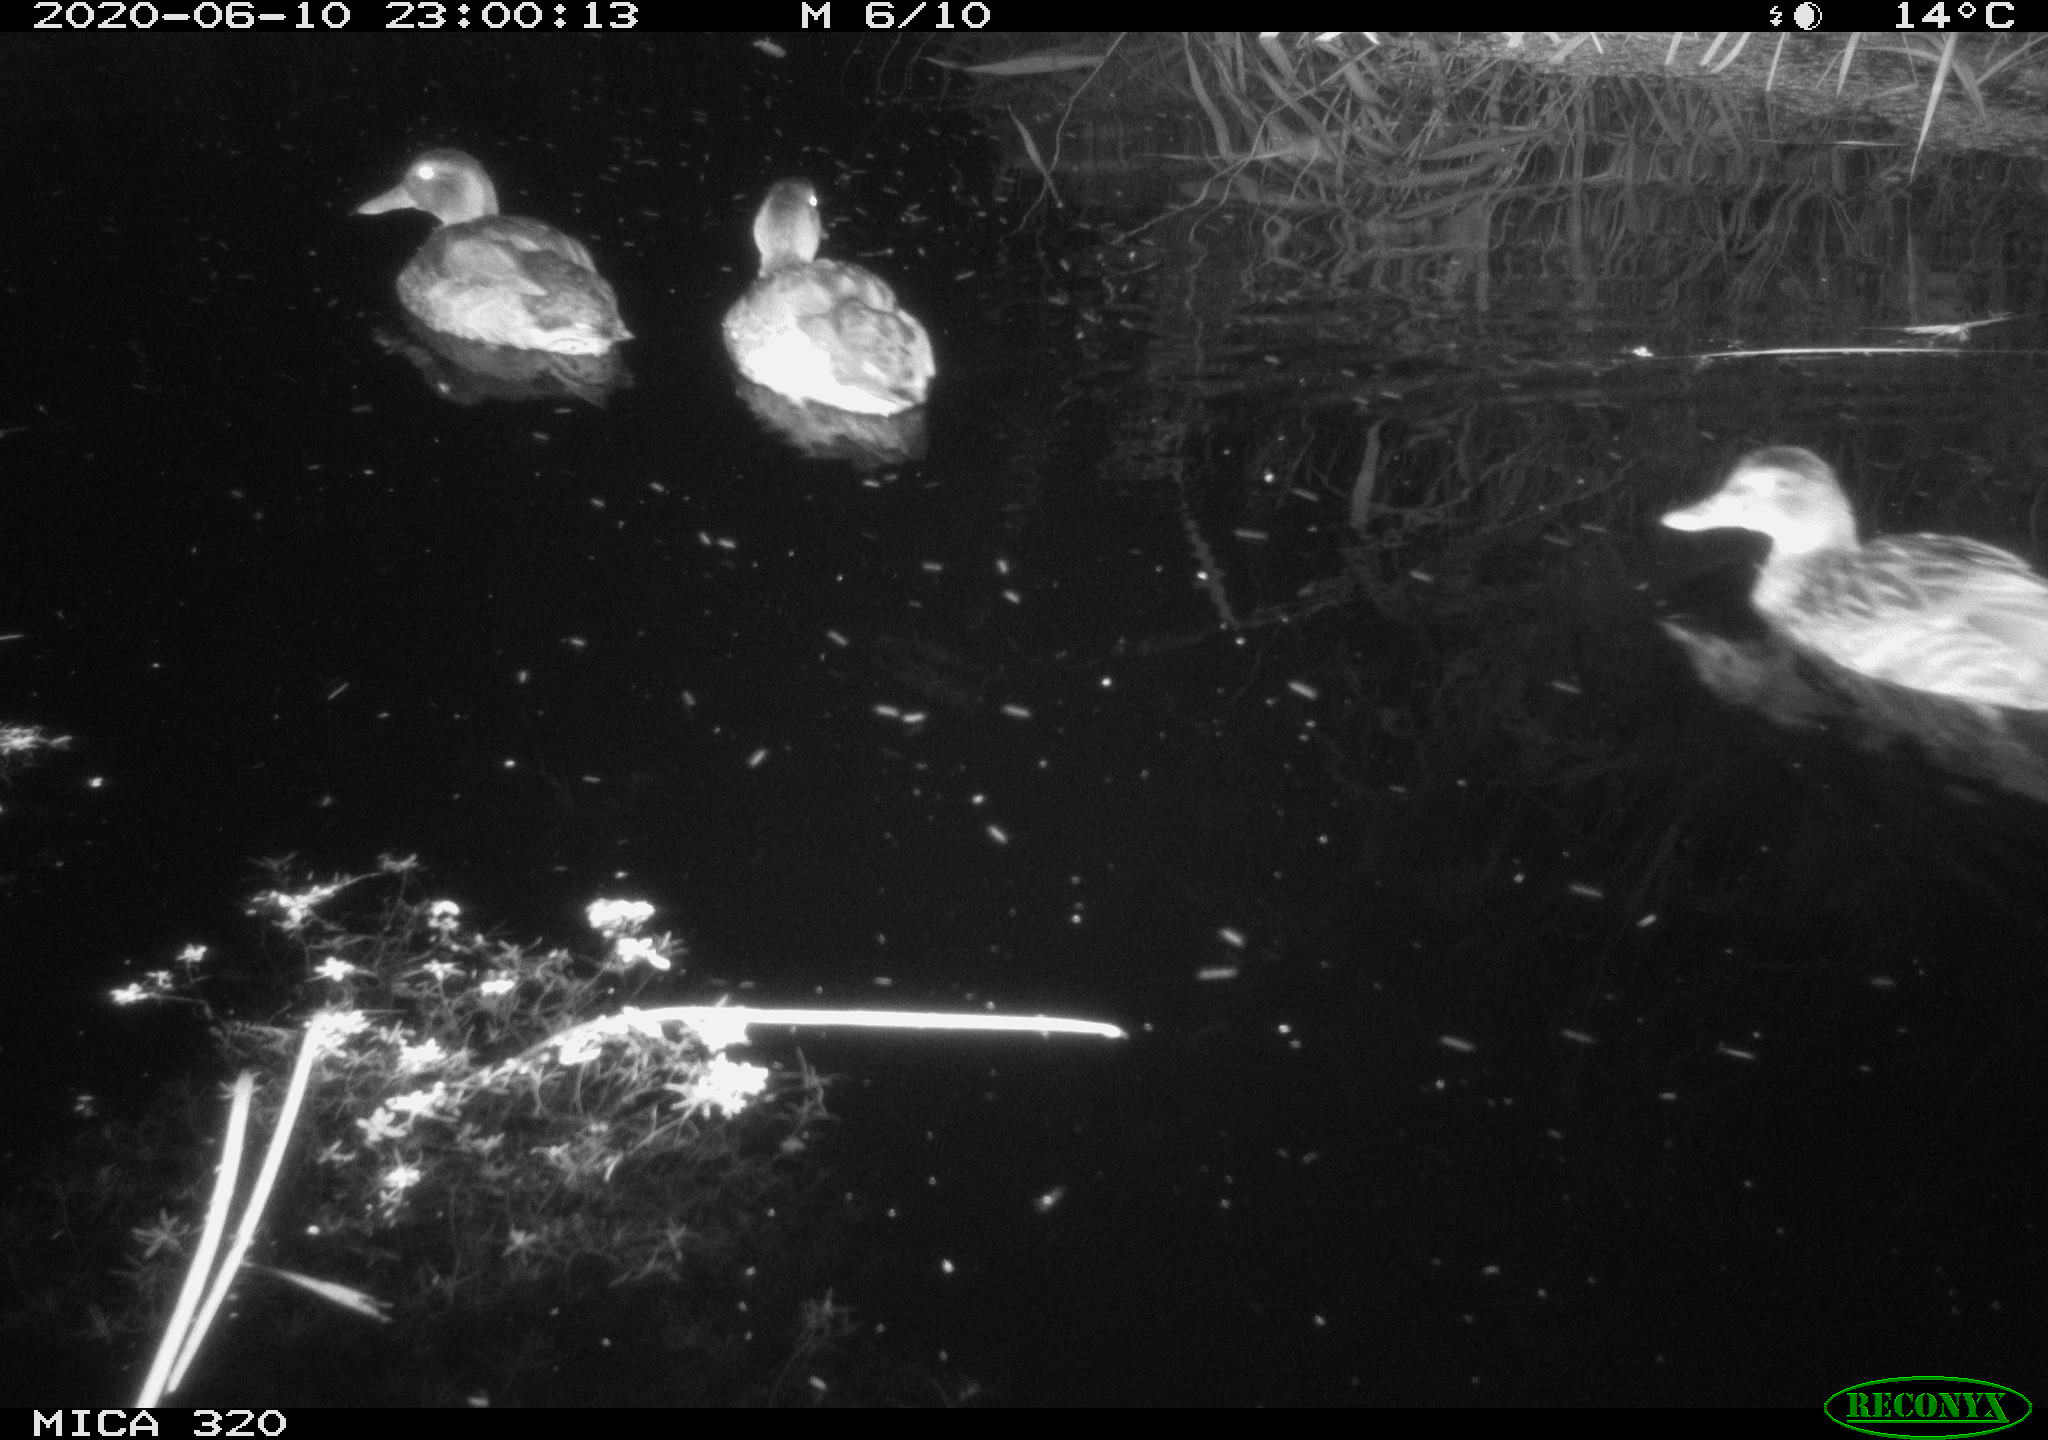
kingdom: Animalia
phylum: Chordata
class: Aves
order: Anseriformes
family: Anatidae
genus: Anas
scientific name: Anas platyrhynchos
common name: Mallard
